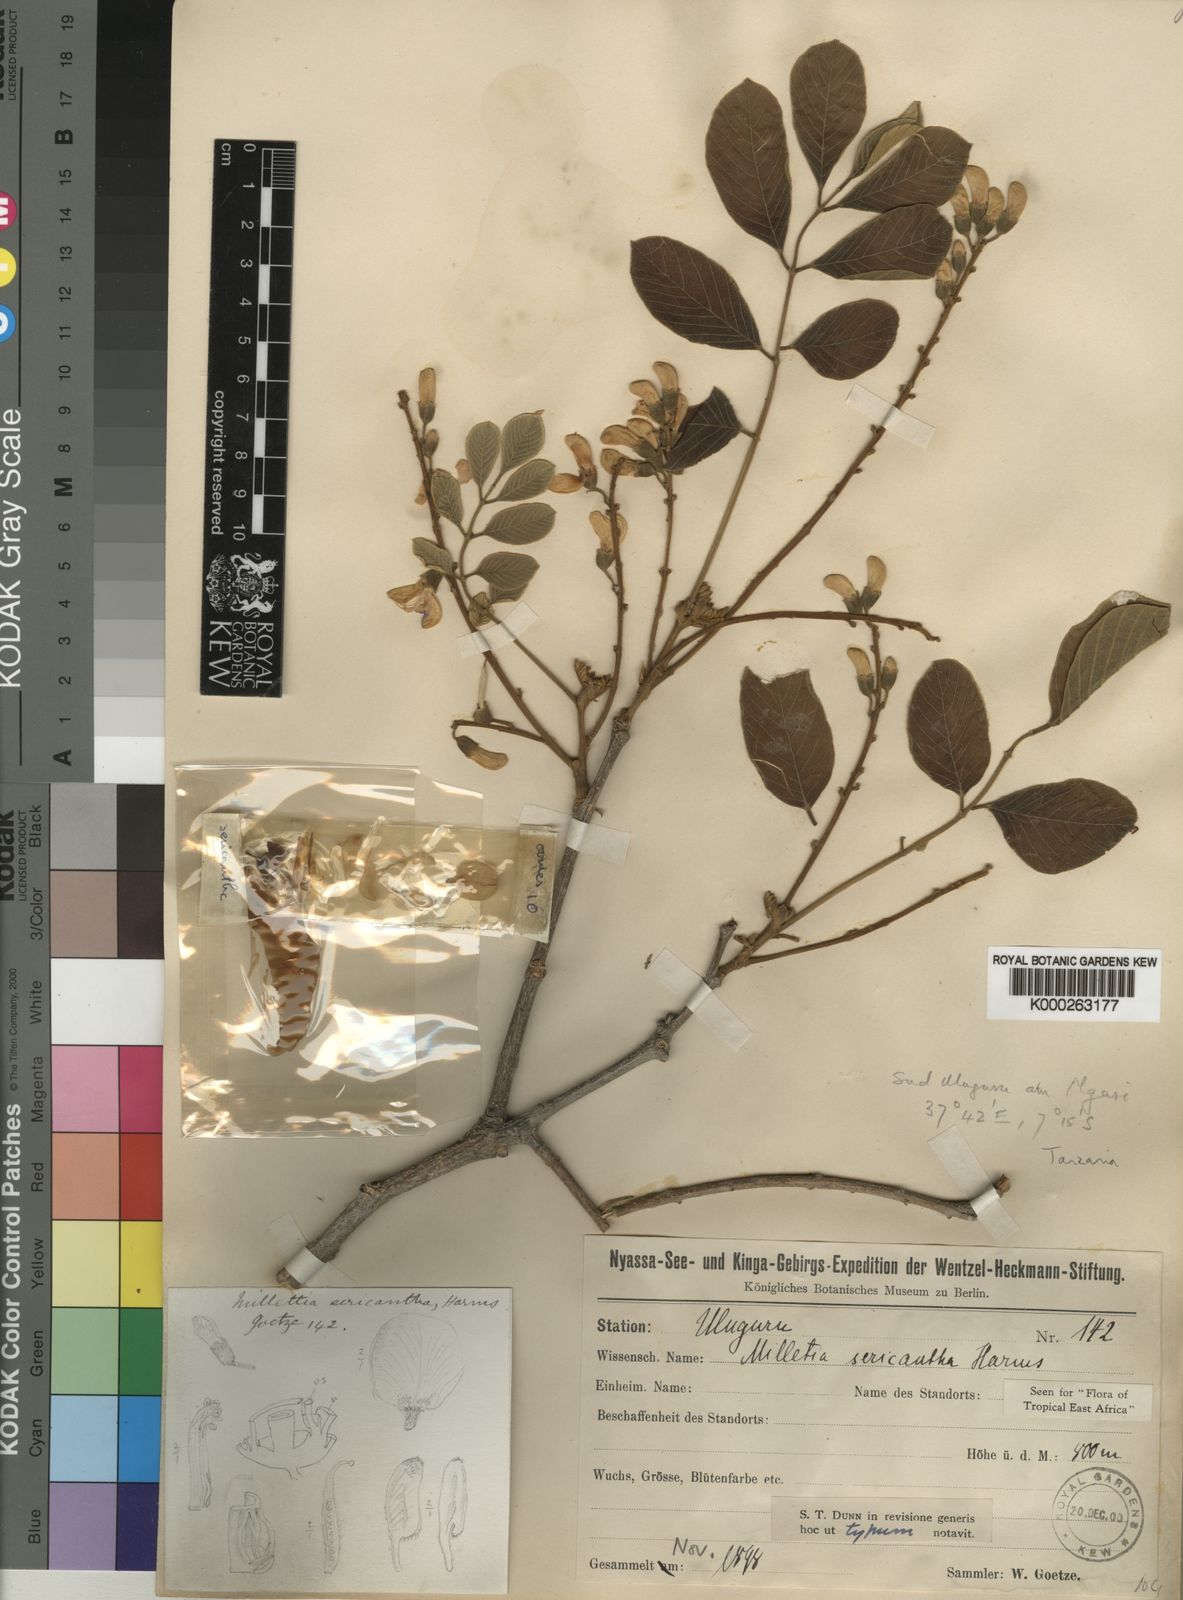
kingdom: Plantae
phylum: Tracheophyta
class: Magnoliopsida
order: Fabales
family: Fabaceae
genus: Millettia
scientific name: Millettia sericantha
